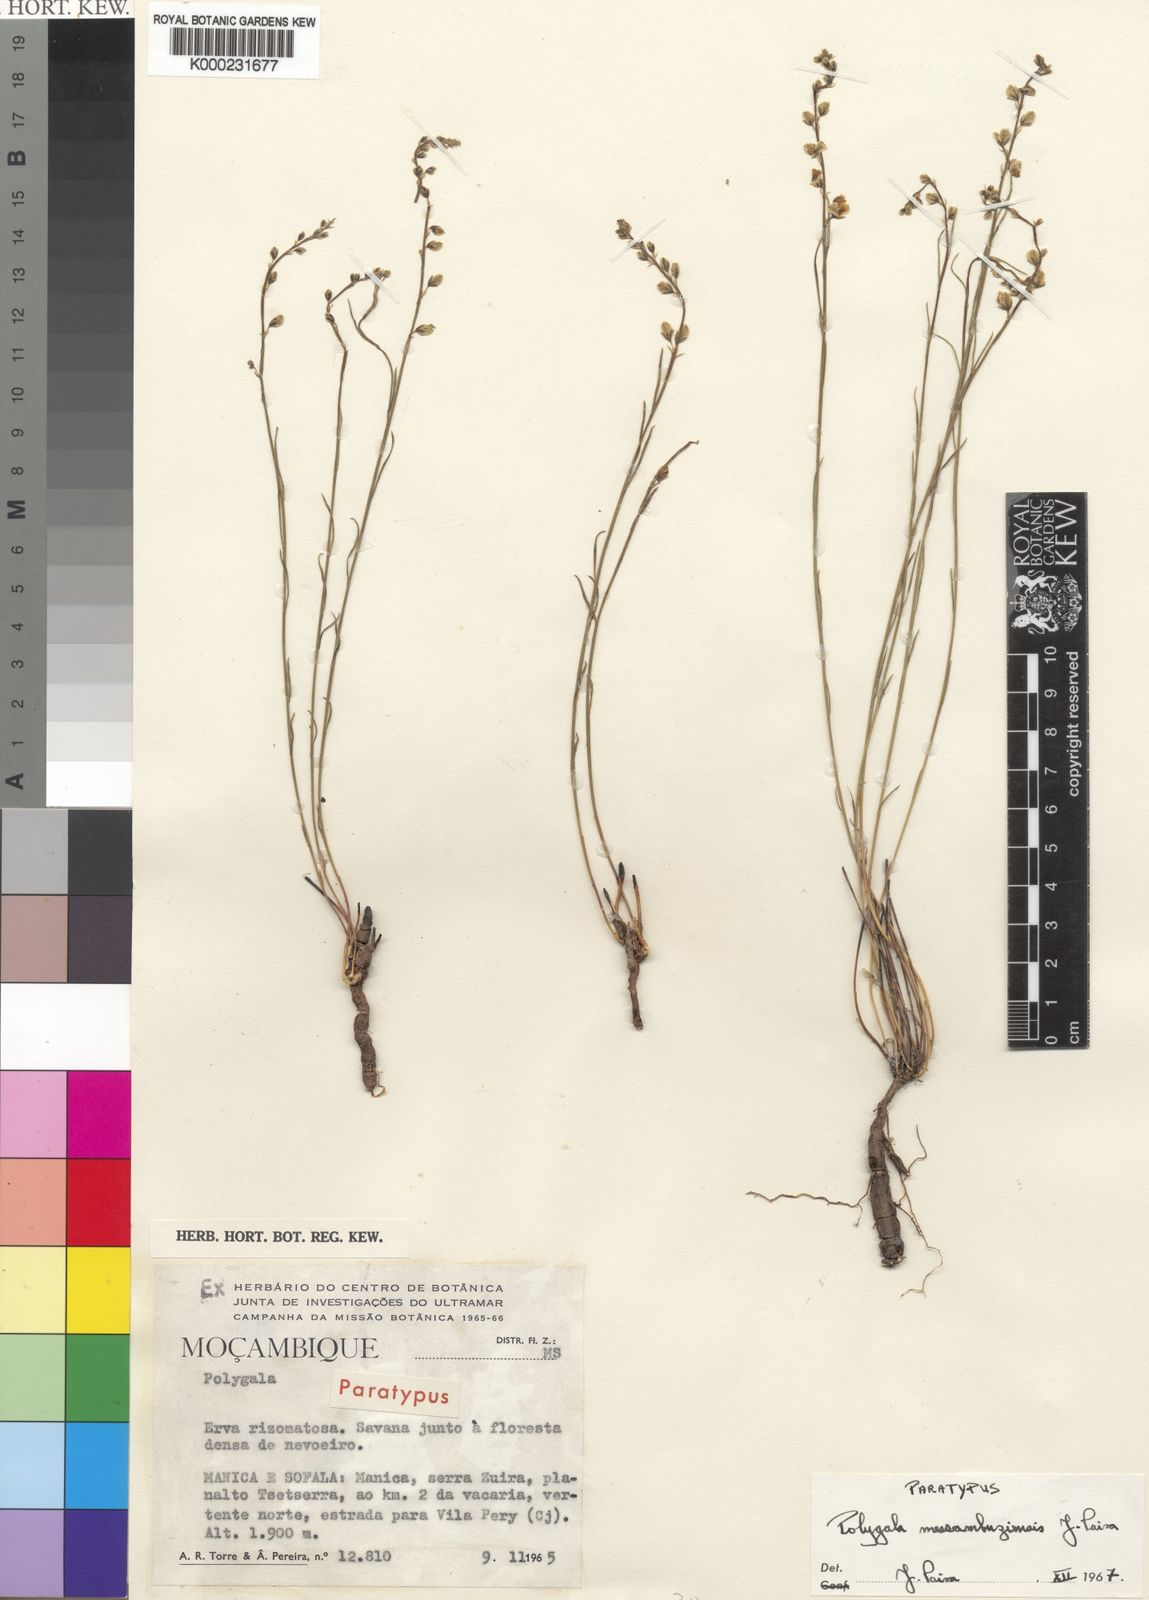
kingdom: Plantae
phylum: Tracheophyta
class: Magnoliopsida
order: Fabales
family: Polygalaceae
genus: Polygala
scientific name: Polygala messambuziensis
